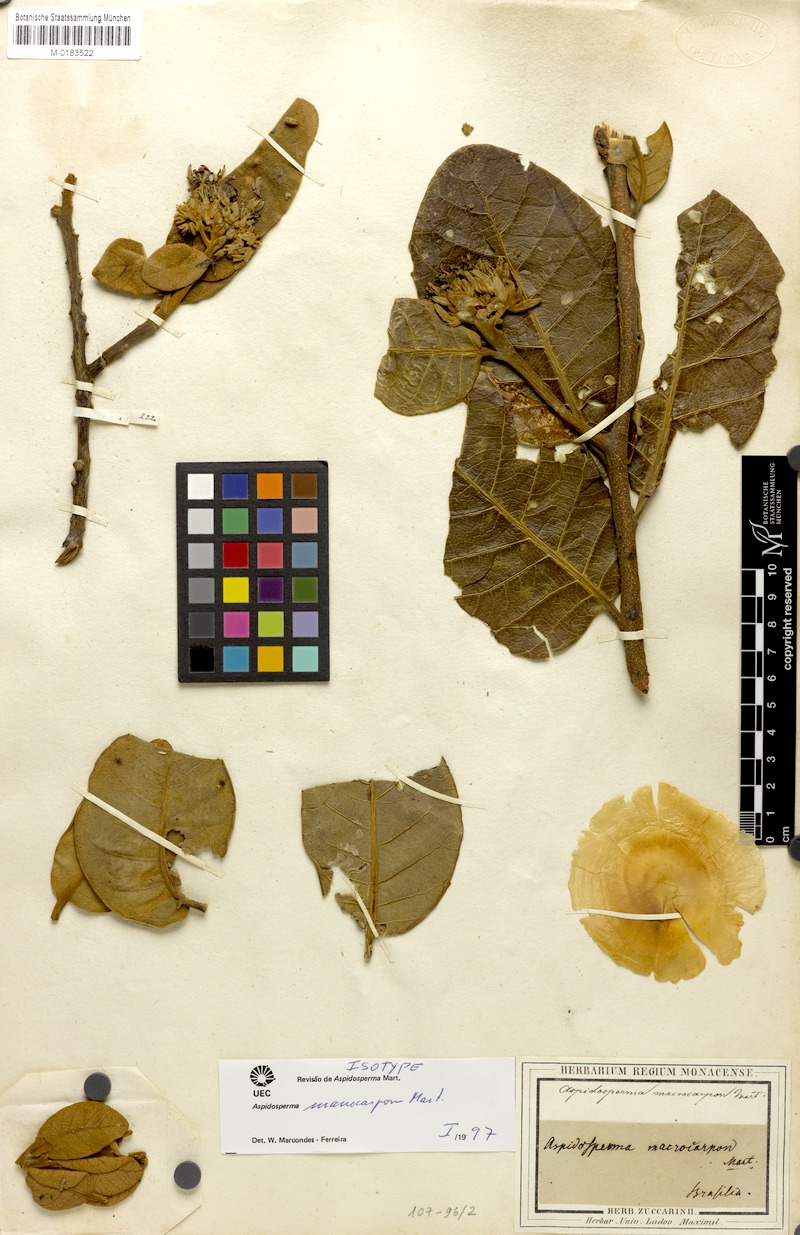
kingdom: Plantae
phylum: Tracheophyta
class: Magnoliopsida
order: Gentianales
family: Apocynaceae
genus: Aspidosperma
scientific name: Aspidosperma macrocarpon
